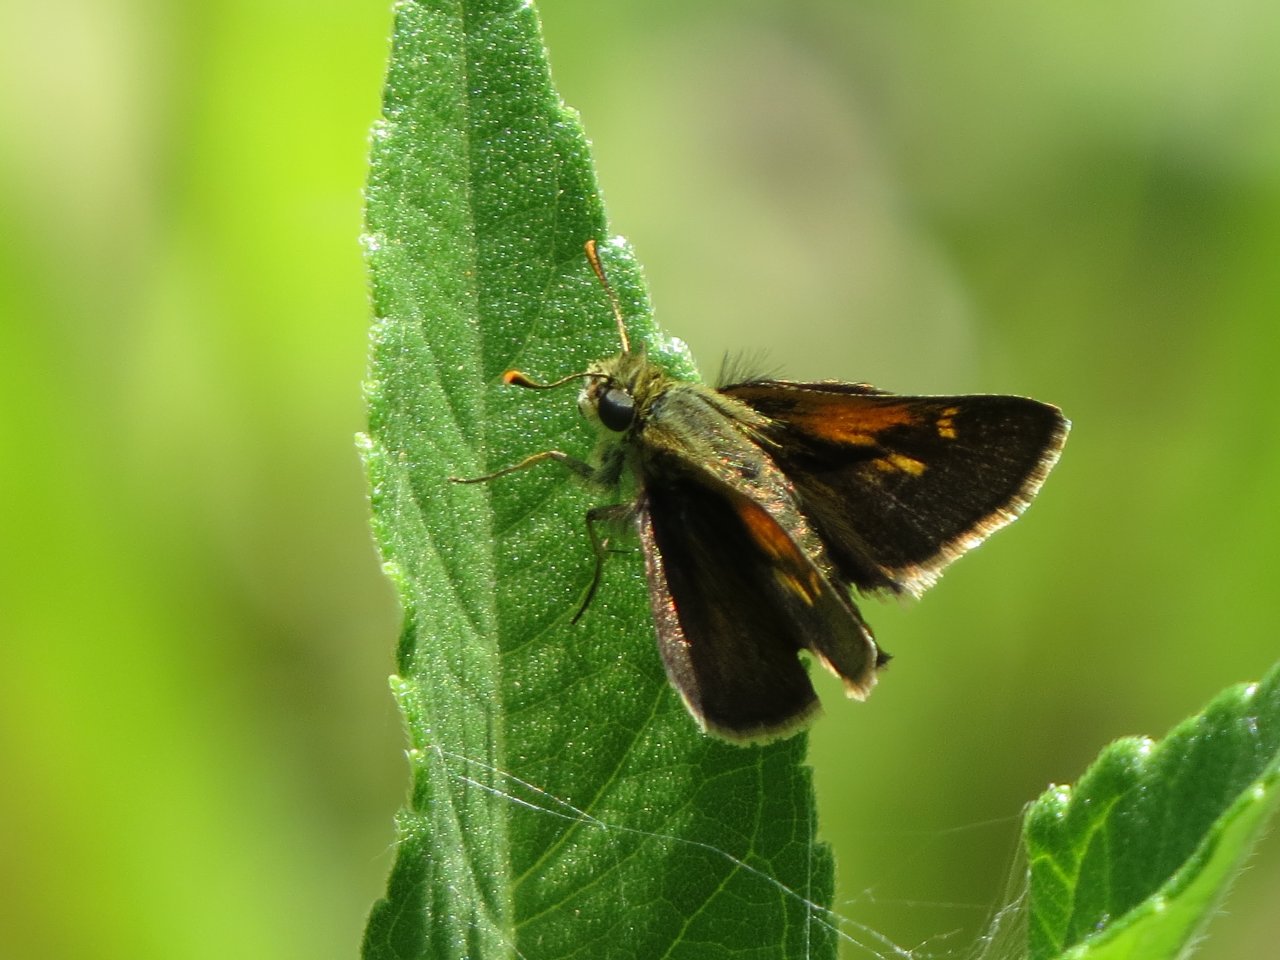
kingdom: Animalia
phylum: Arthropoda
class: Insecta
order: Lepidoptera
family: Hesperiidae
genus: Polites
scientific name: Polites themistocles
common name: Tawny-edged Skipper
